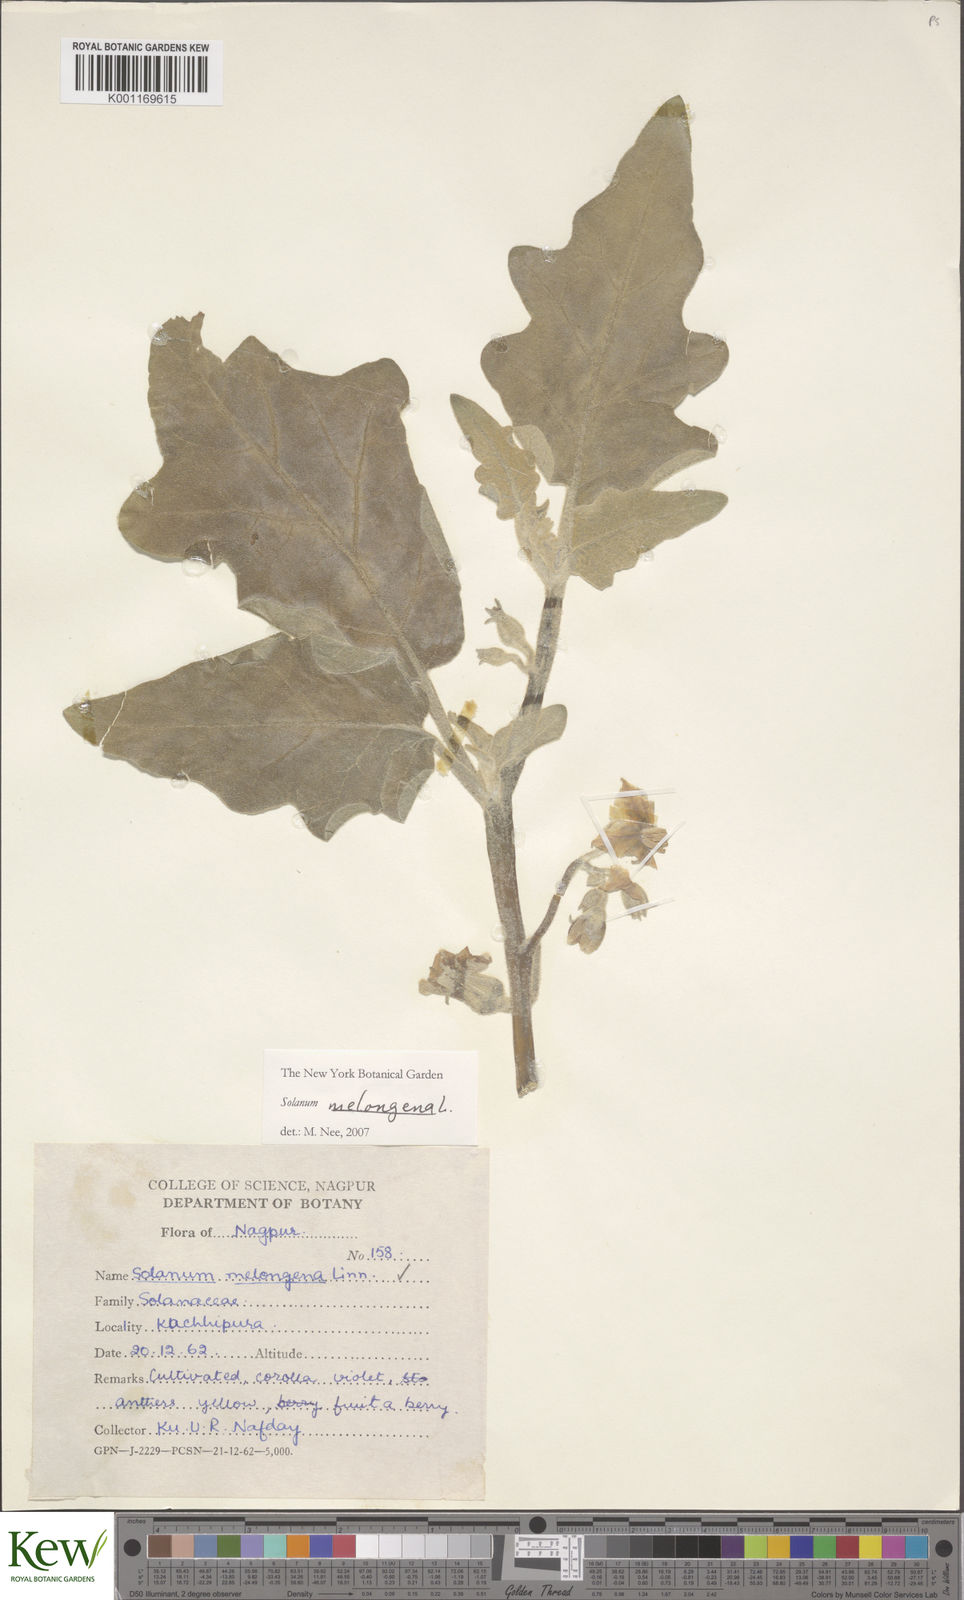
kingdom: Plantae
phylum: Tracheophyta
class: Magnoliopsida
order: Solanales
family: Solanaceae
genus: Solanum
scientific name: Solanum melongena
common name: Eggplant
